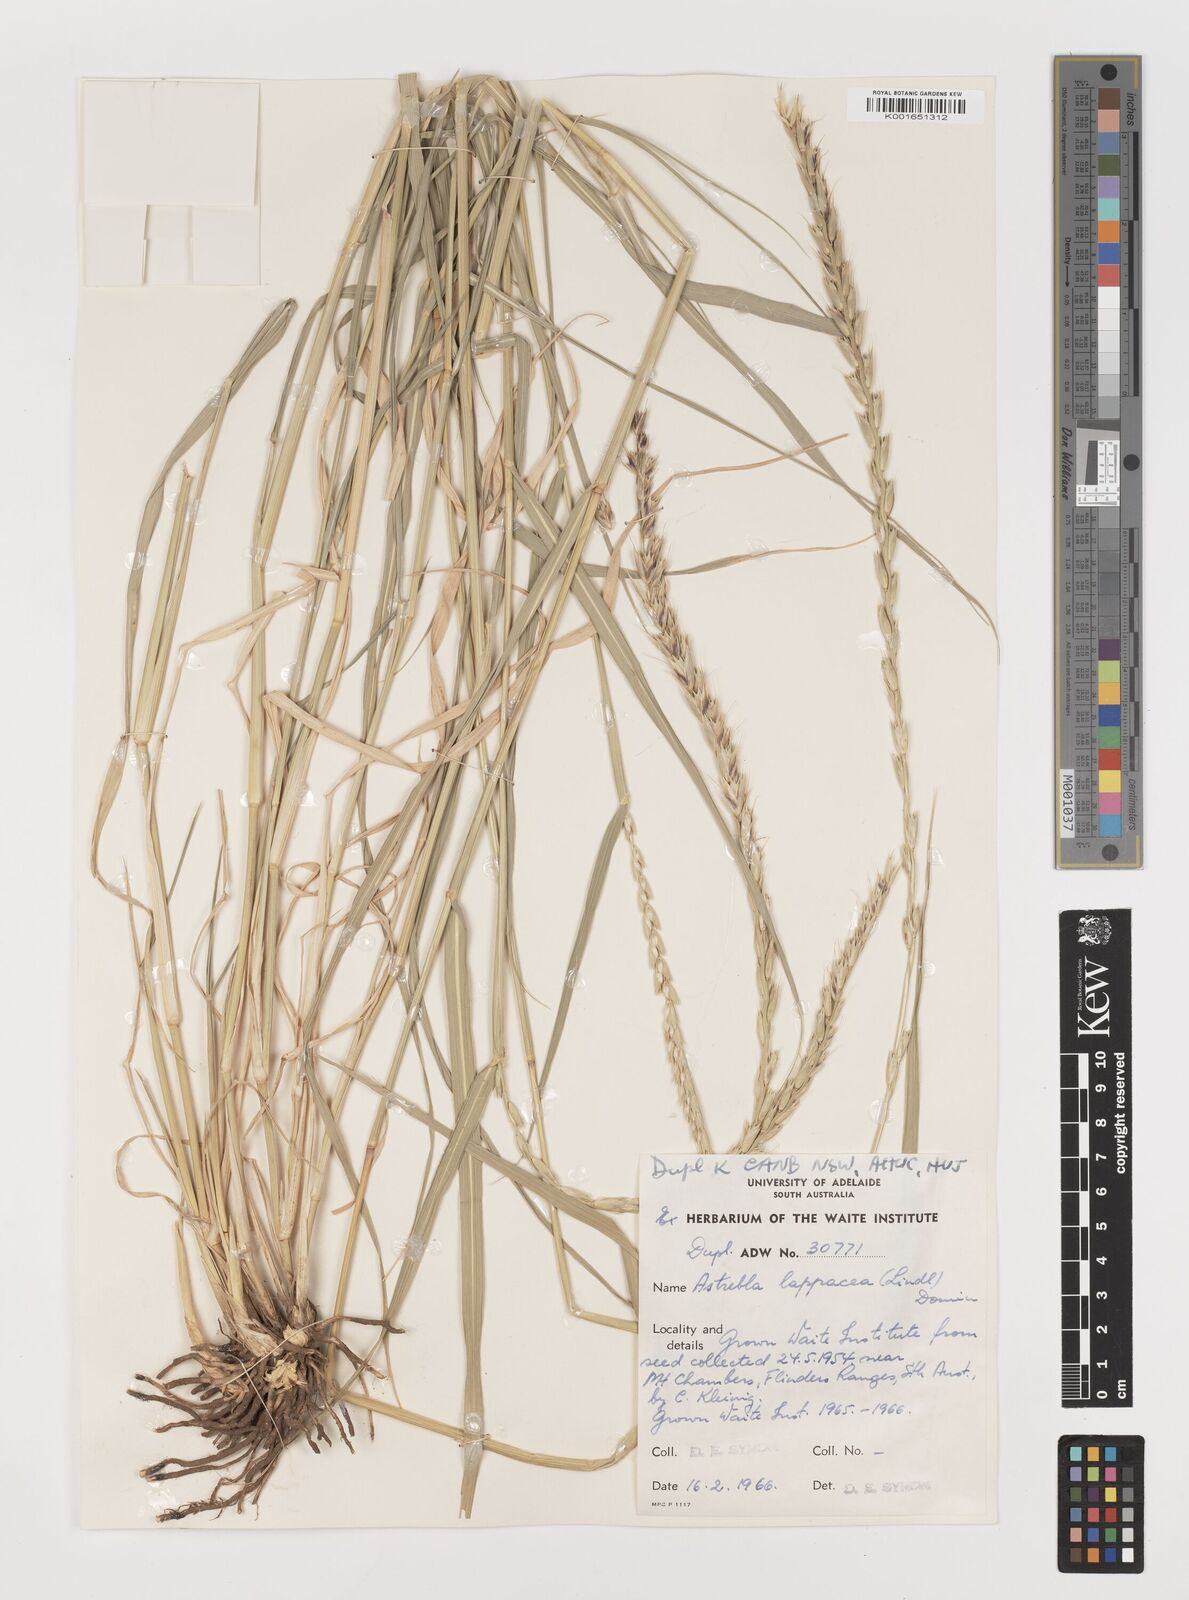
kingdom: Plantae
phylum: Tracheophyta
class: Liliopsida
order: Poales
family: Poaceae
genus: Astrebla
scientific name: Astrebla lappacea
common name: Curly mitchell grass
